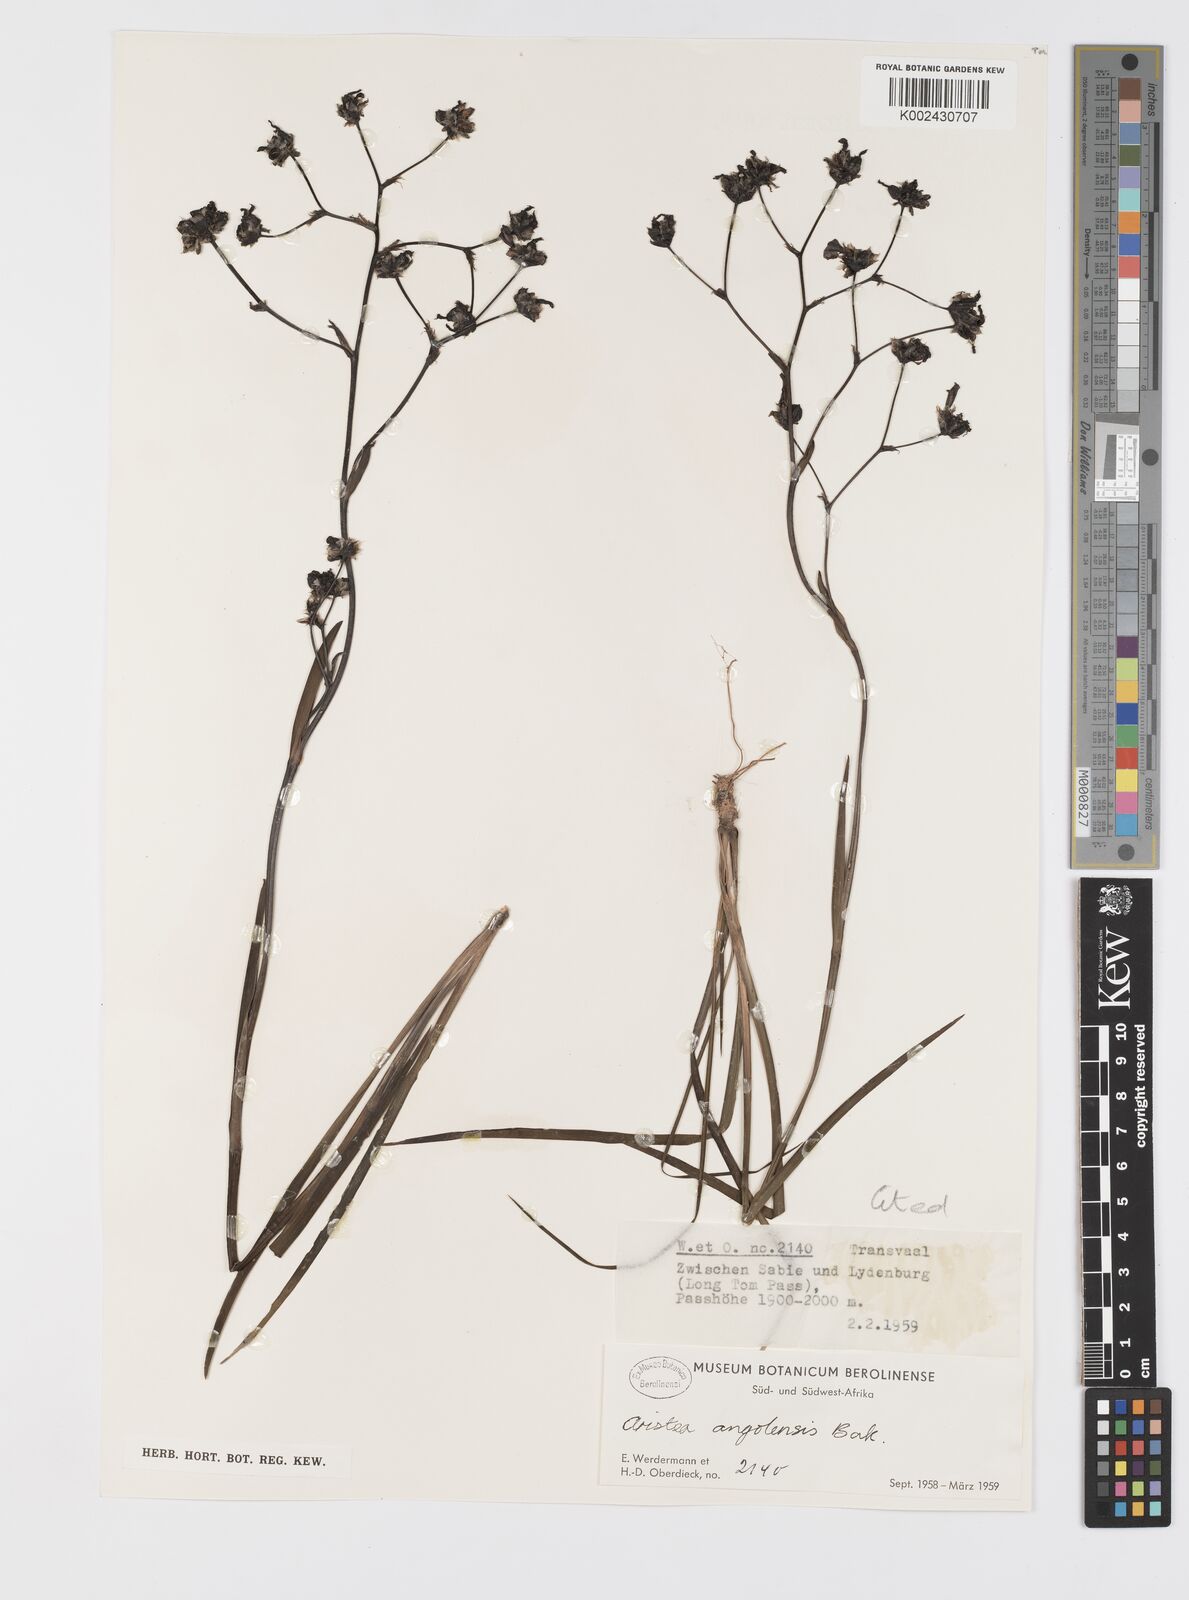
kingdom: Plantae
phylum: Tracheophyta
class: Liliopsida
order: Asparagales
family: Iridaceae
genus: Aristea
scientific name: Aristea angolensis
